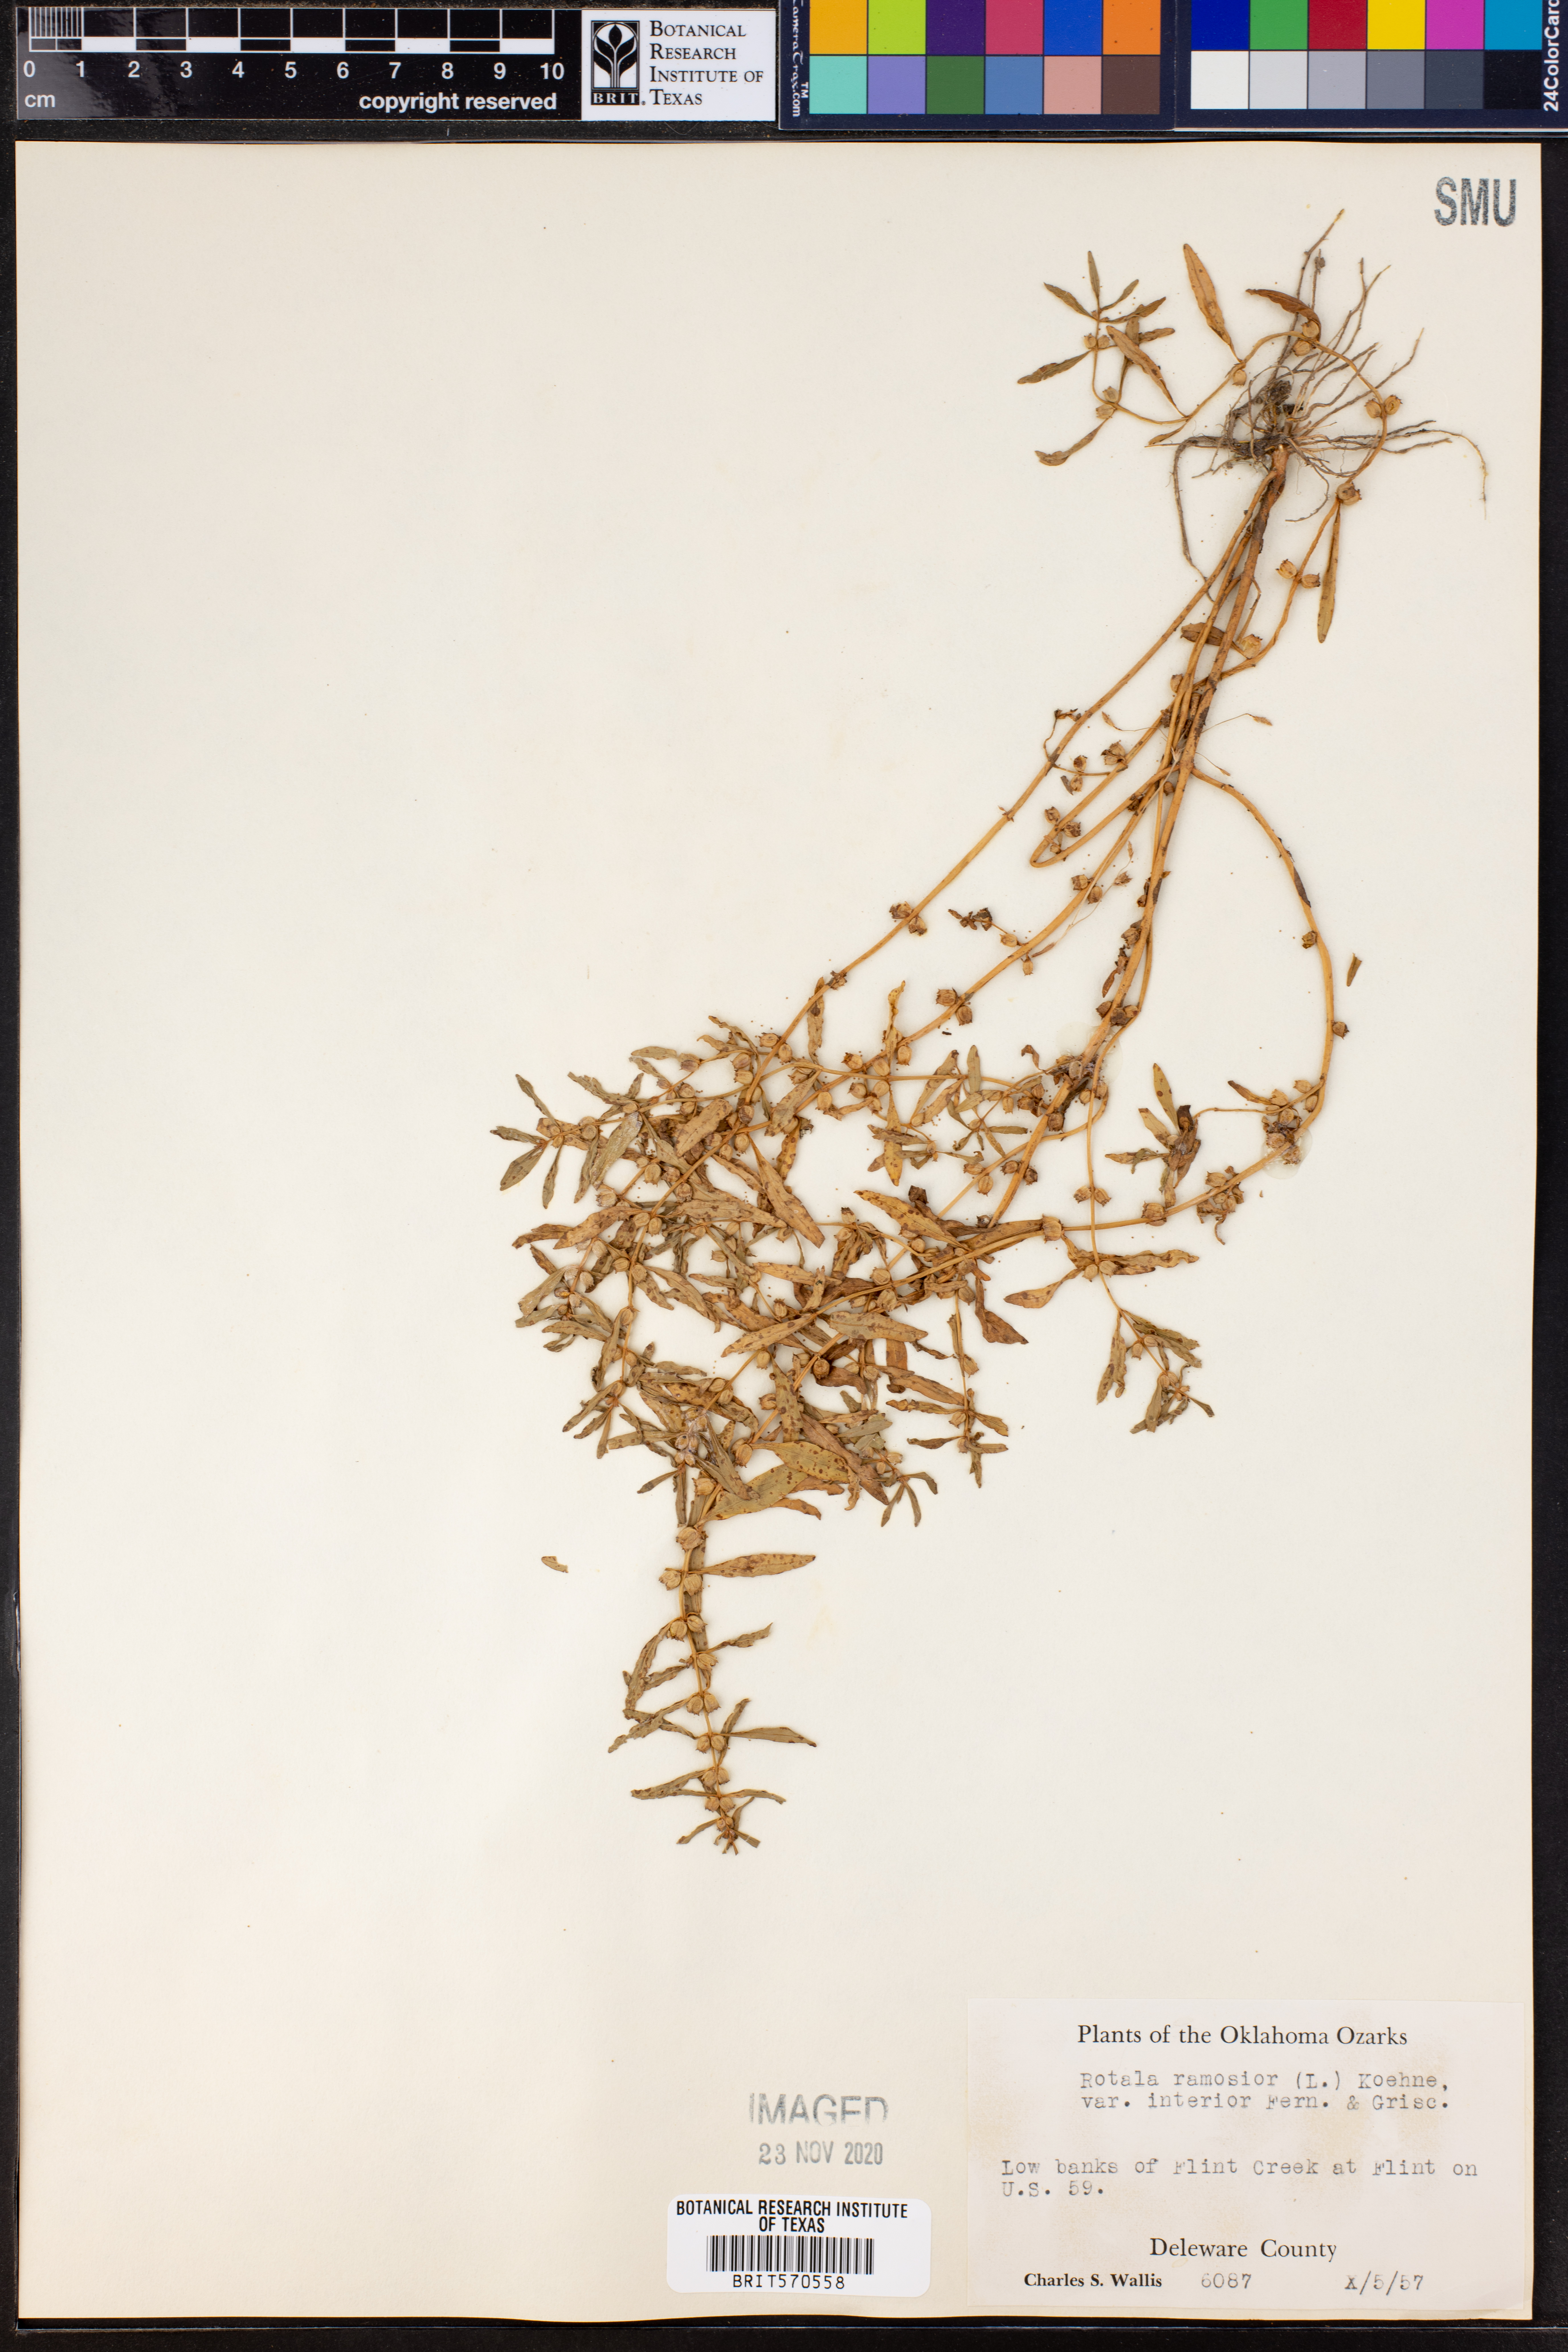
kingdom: Plantae
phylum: Tracheophyta
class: Magnoliopsida
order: Myrtales
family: Lythraceae
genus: Rotala
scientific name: Rotala ramosior
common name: Lowland rotala
